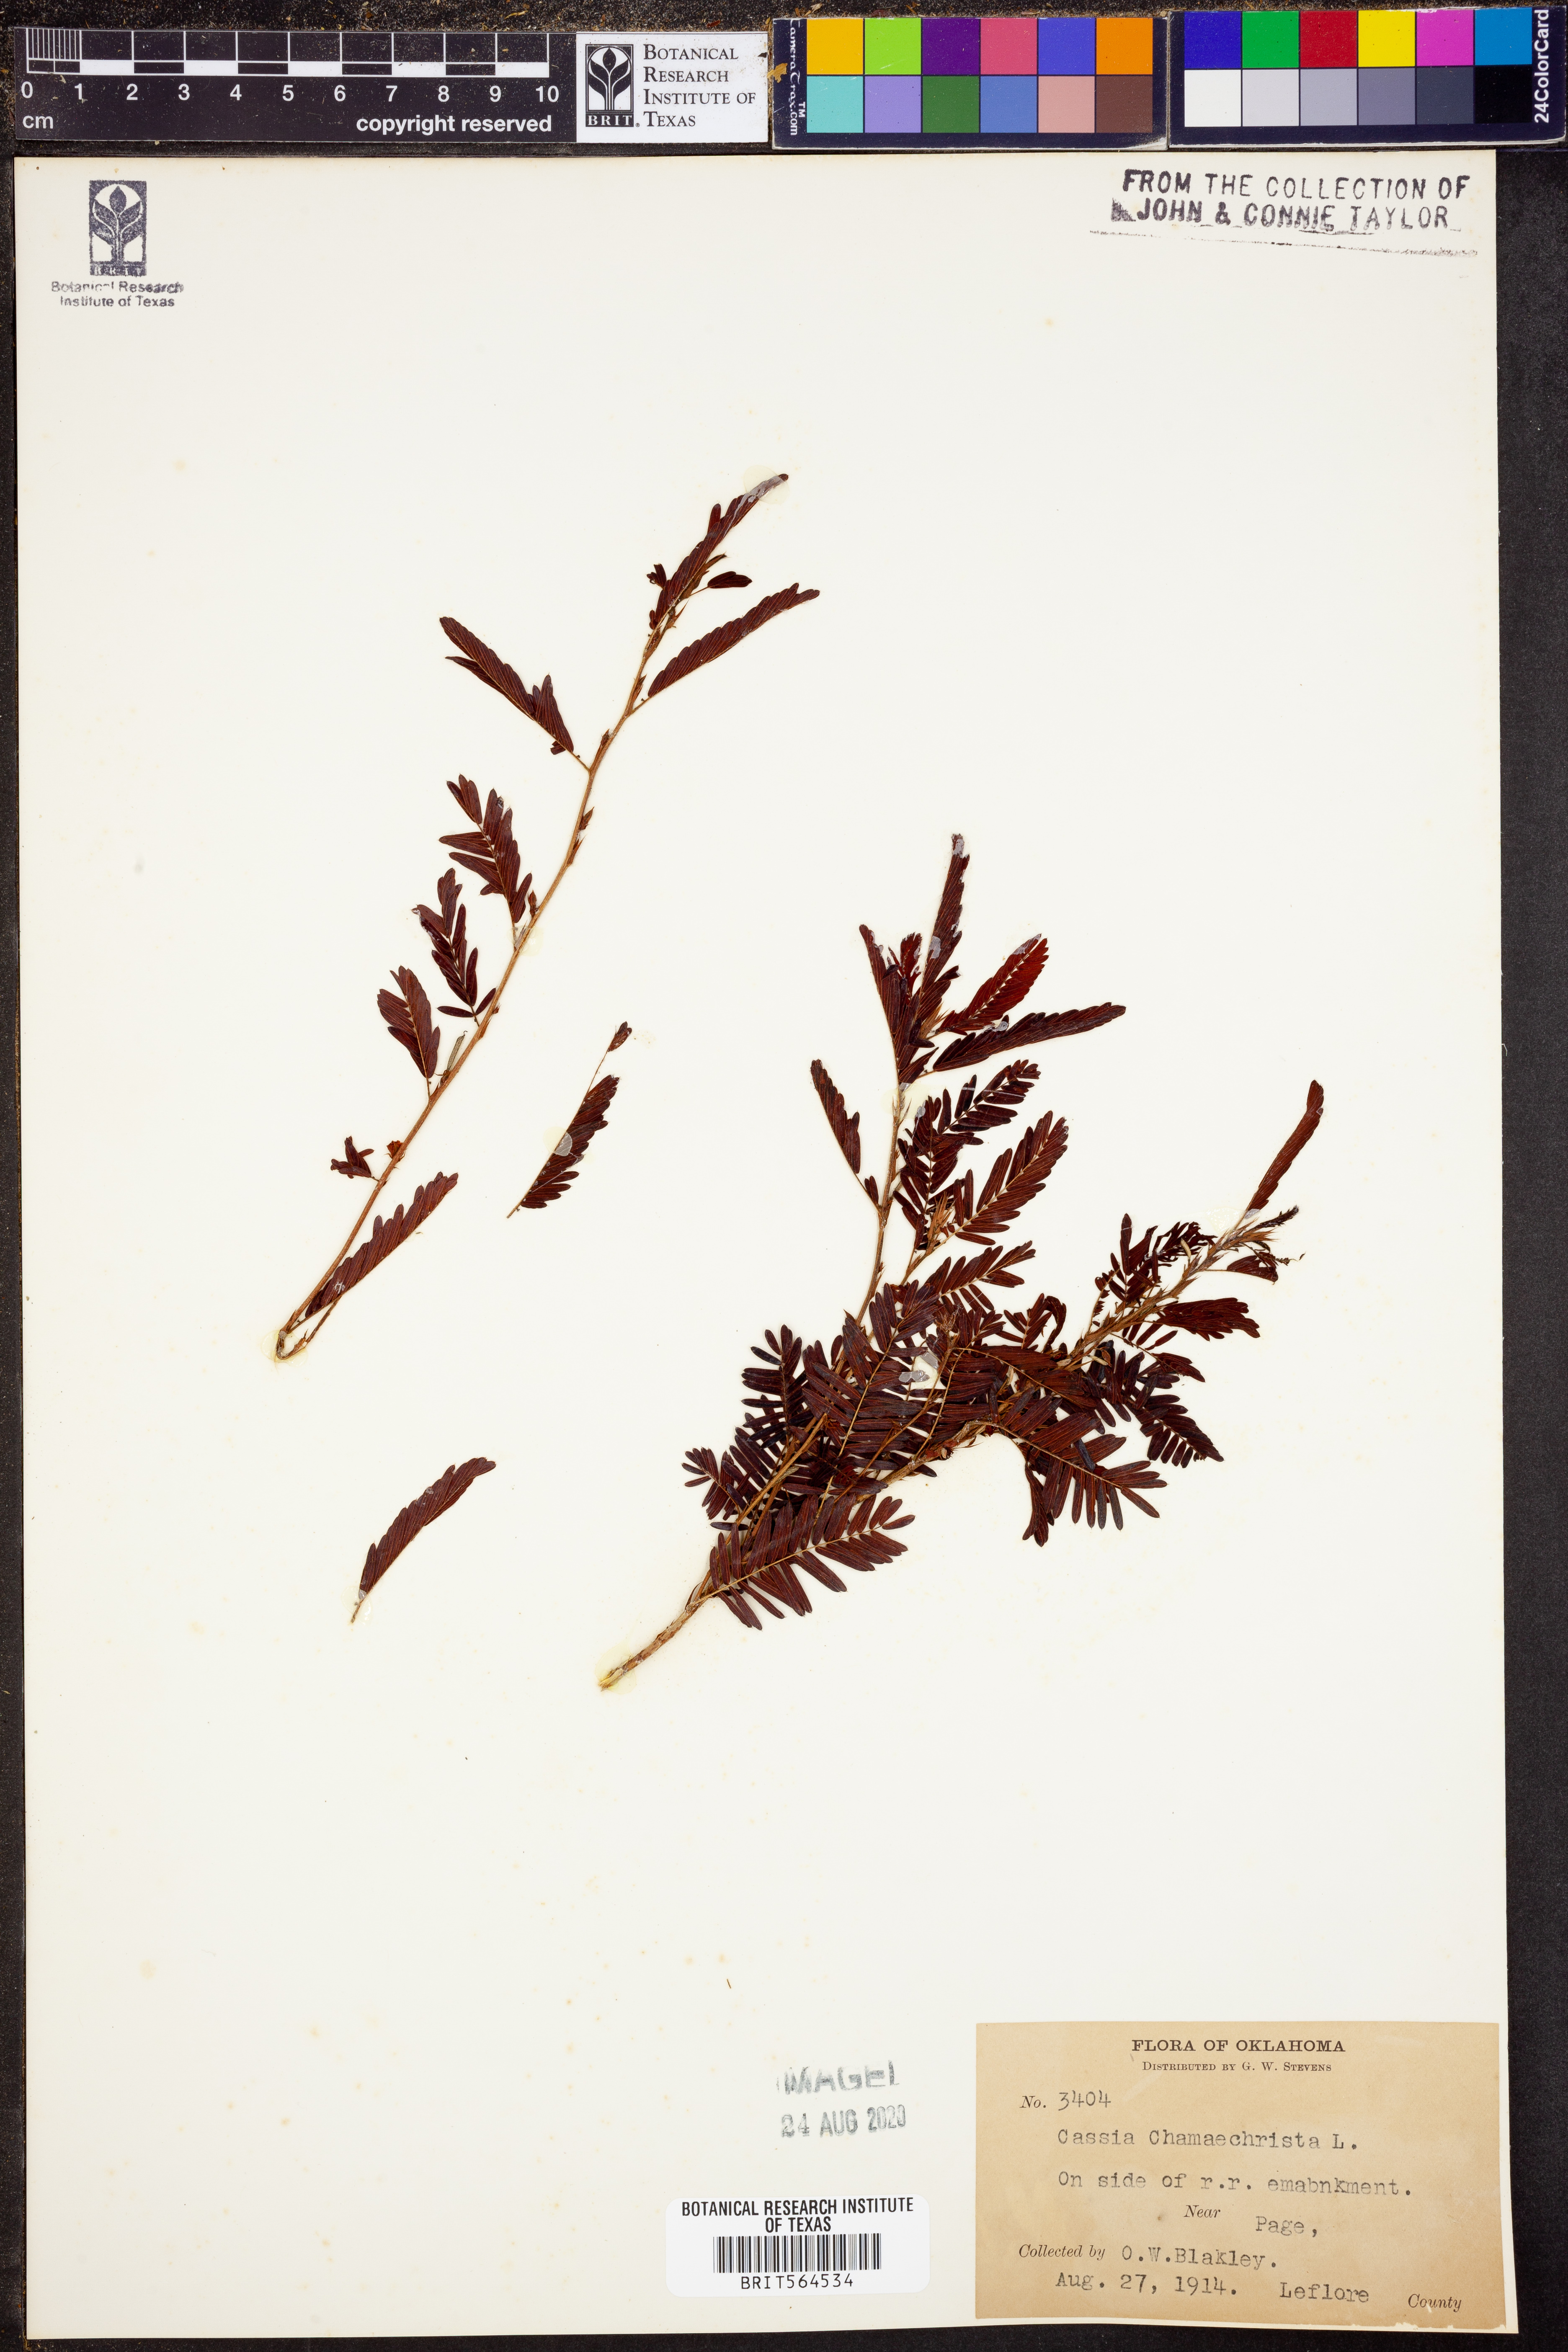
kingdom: Plantae
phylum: Tracheophyta
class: Magnoliopsida
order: Fabales
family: Fabaceae
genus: Chamaecrista
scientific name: Chamaecrista fasciculata
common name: Golden cassia
